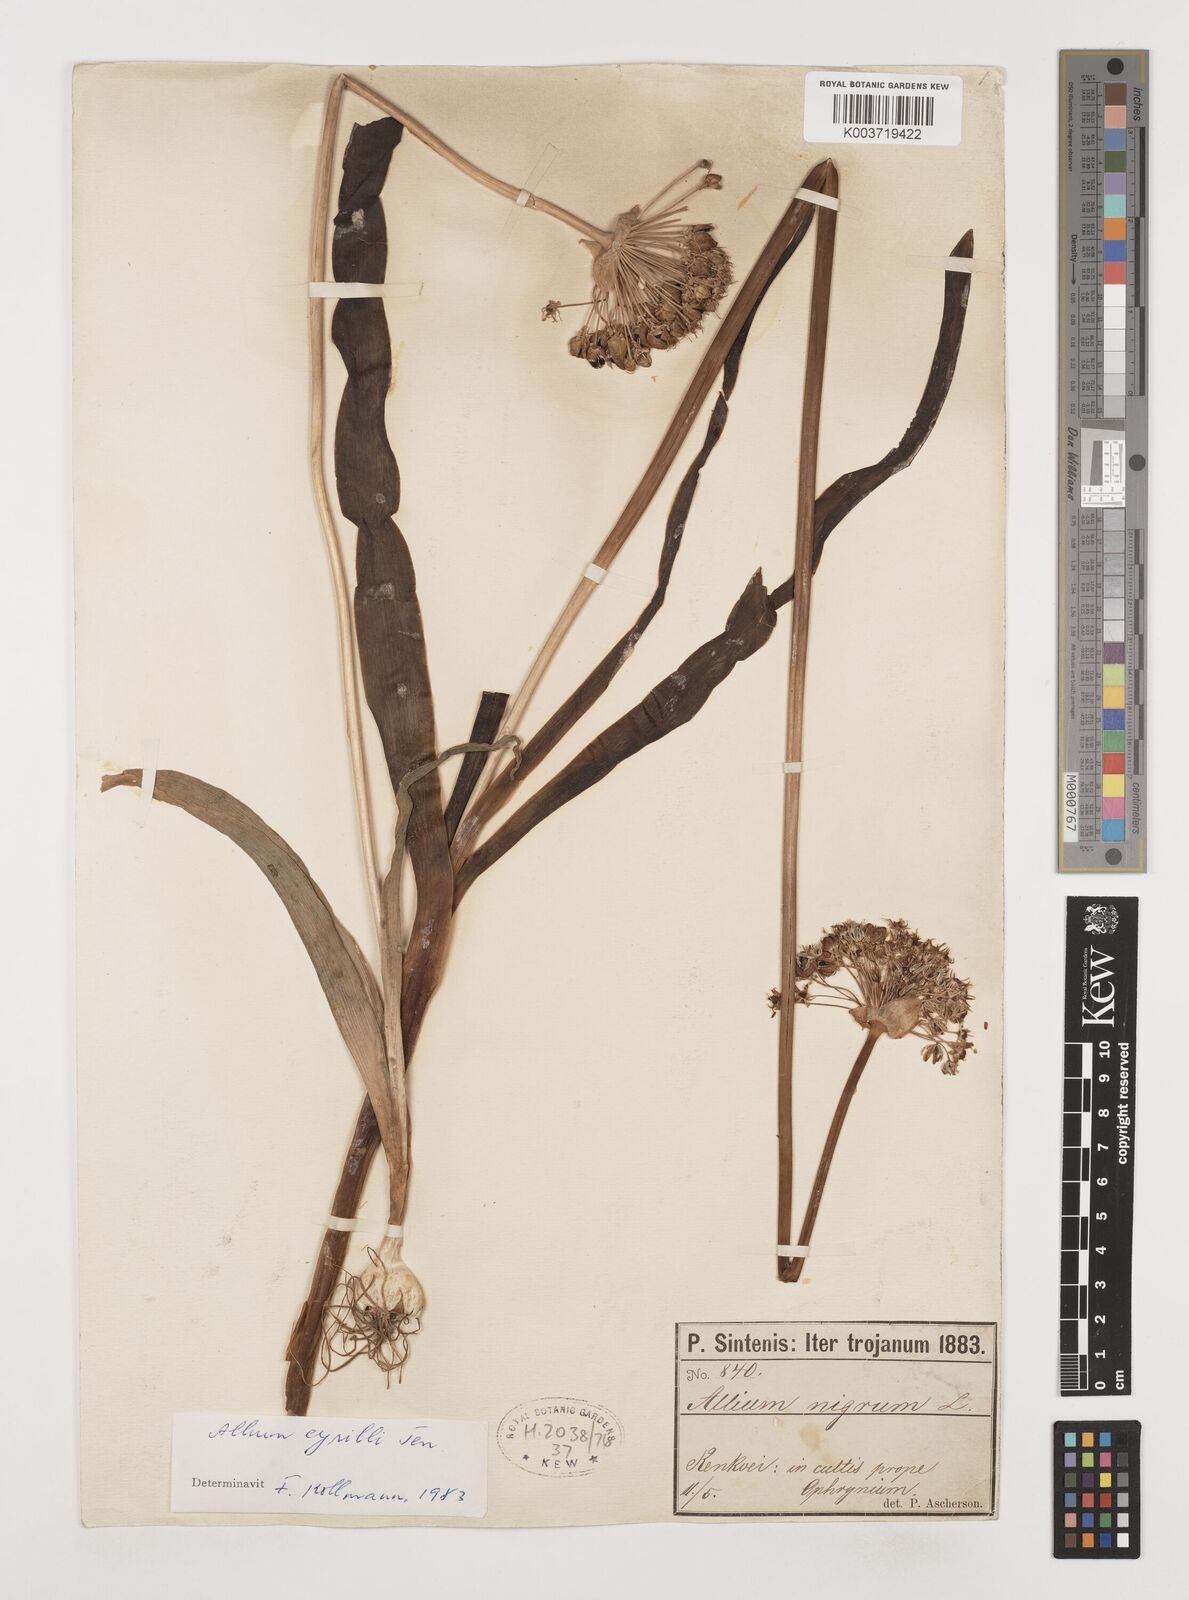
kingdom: Plantae
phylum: Tracheophyta
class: Liliopsida
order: Asparagales
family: Amaryllidaceae
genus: Allium
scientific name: Allium cyrilli
